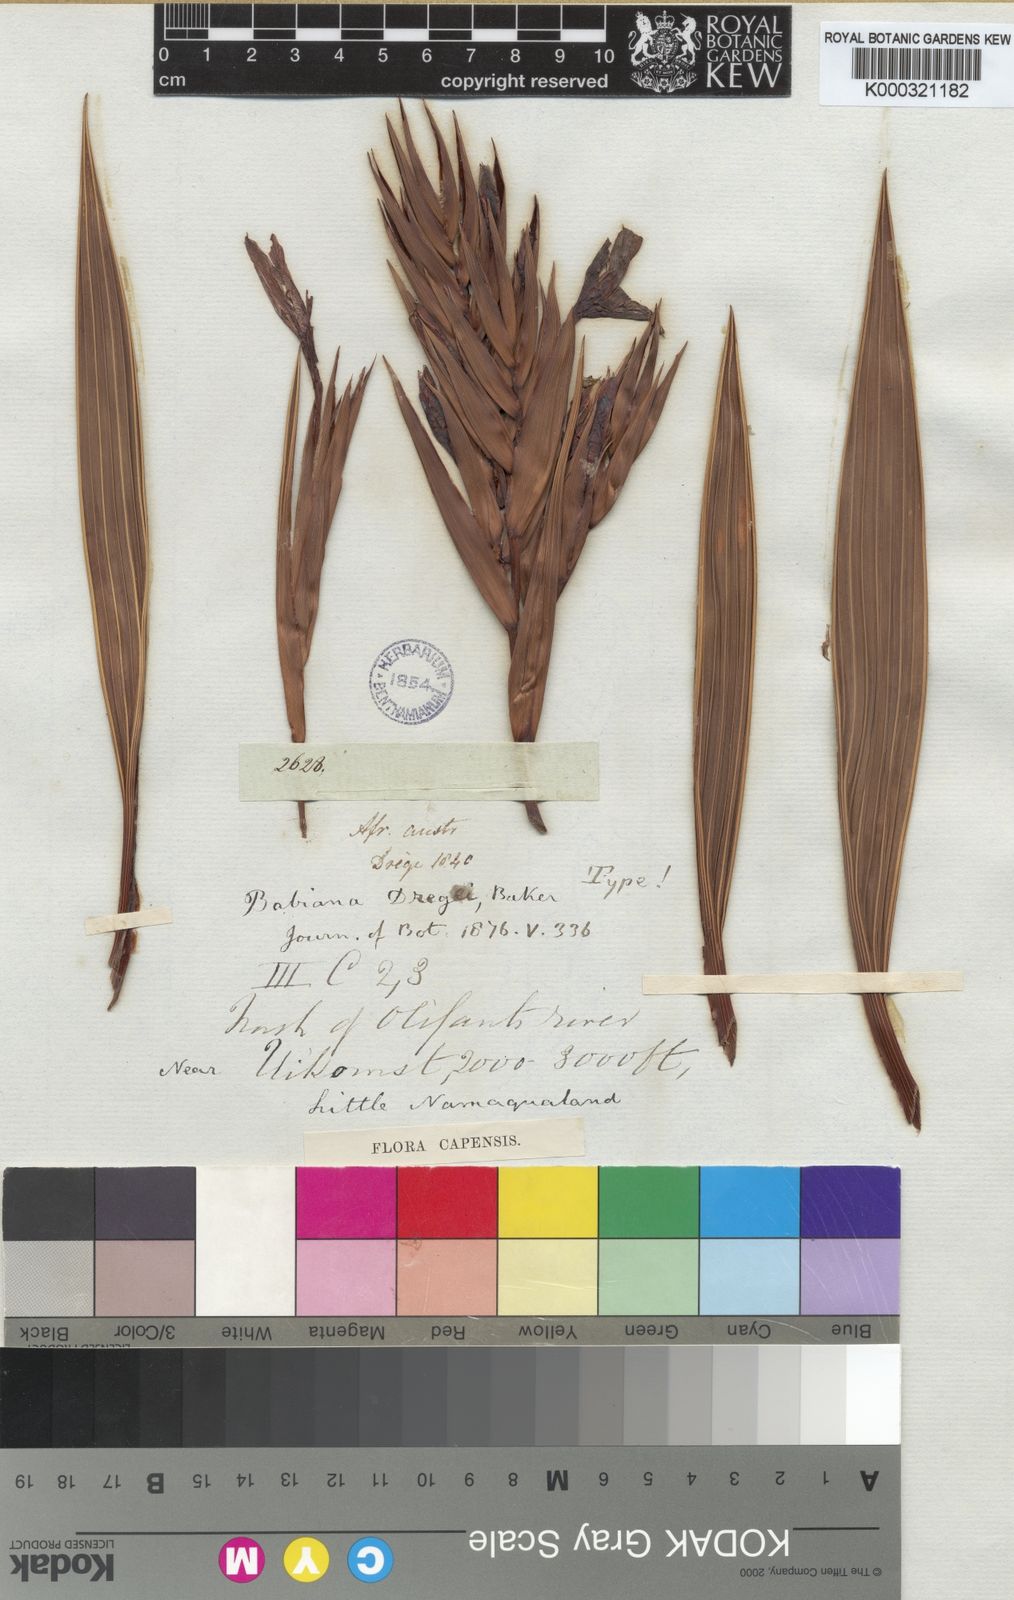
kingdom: Plantae
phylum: Tracheophyta
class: Liliopsida
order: Asparagales
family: Iridaceae
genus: Babiana
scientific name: Babiana dregei
